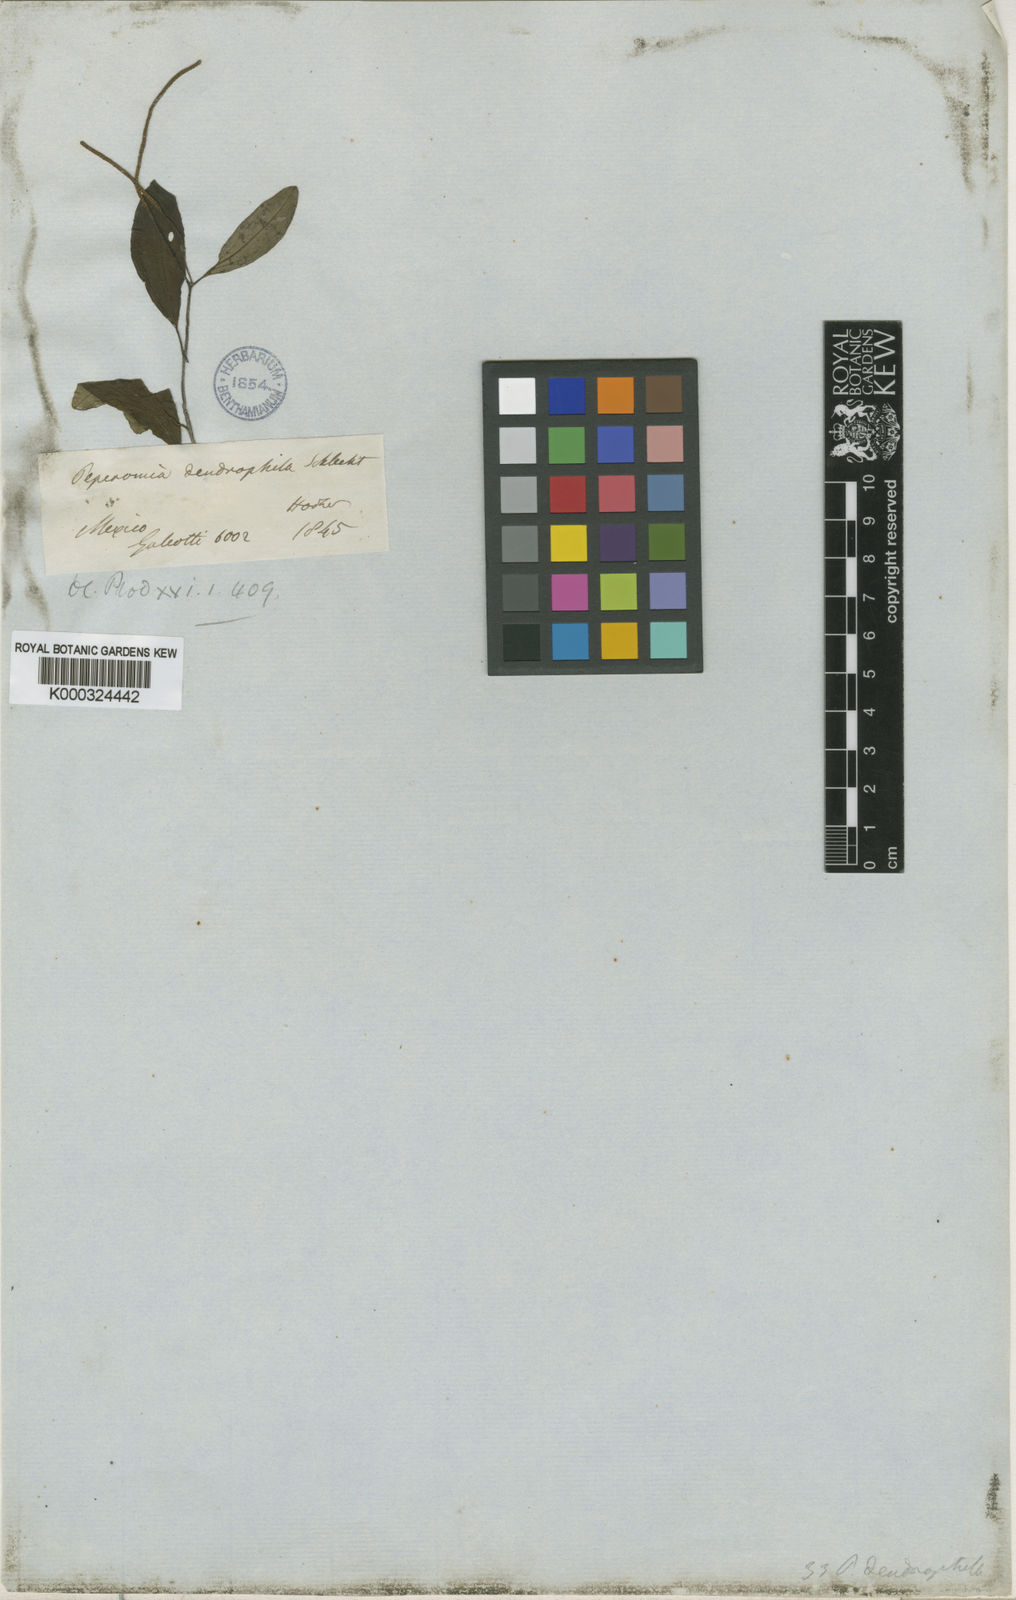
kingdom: Plantae
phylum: Tracheophyta
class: Magnoliopsida
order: Piperales
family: Piperaceae
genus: Peperomia
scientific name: Peperomia dendrophila
